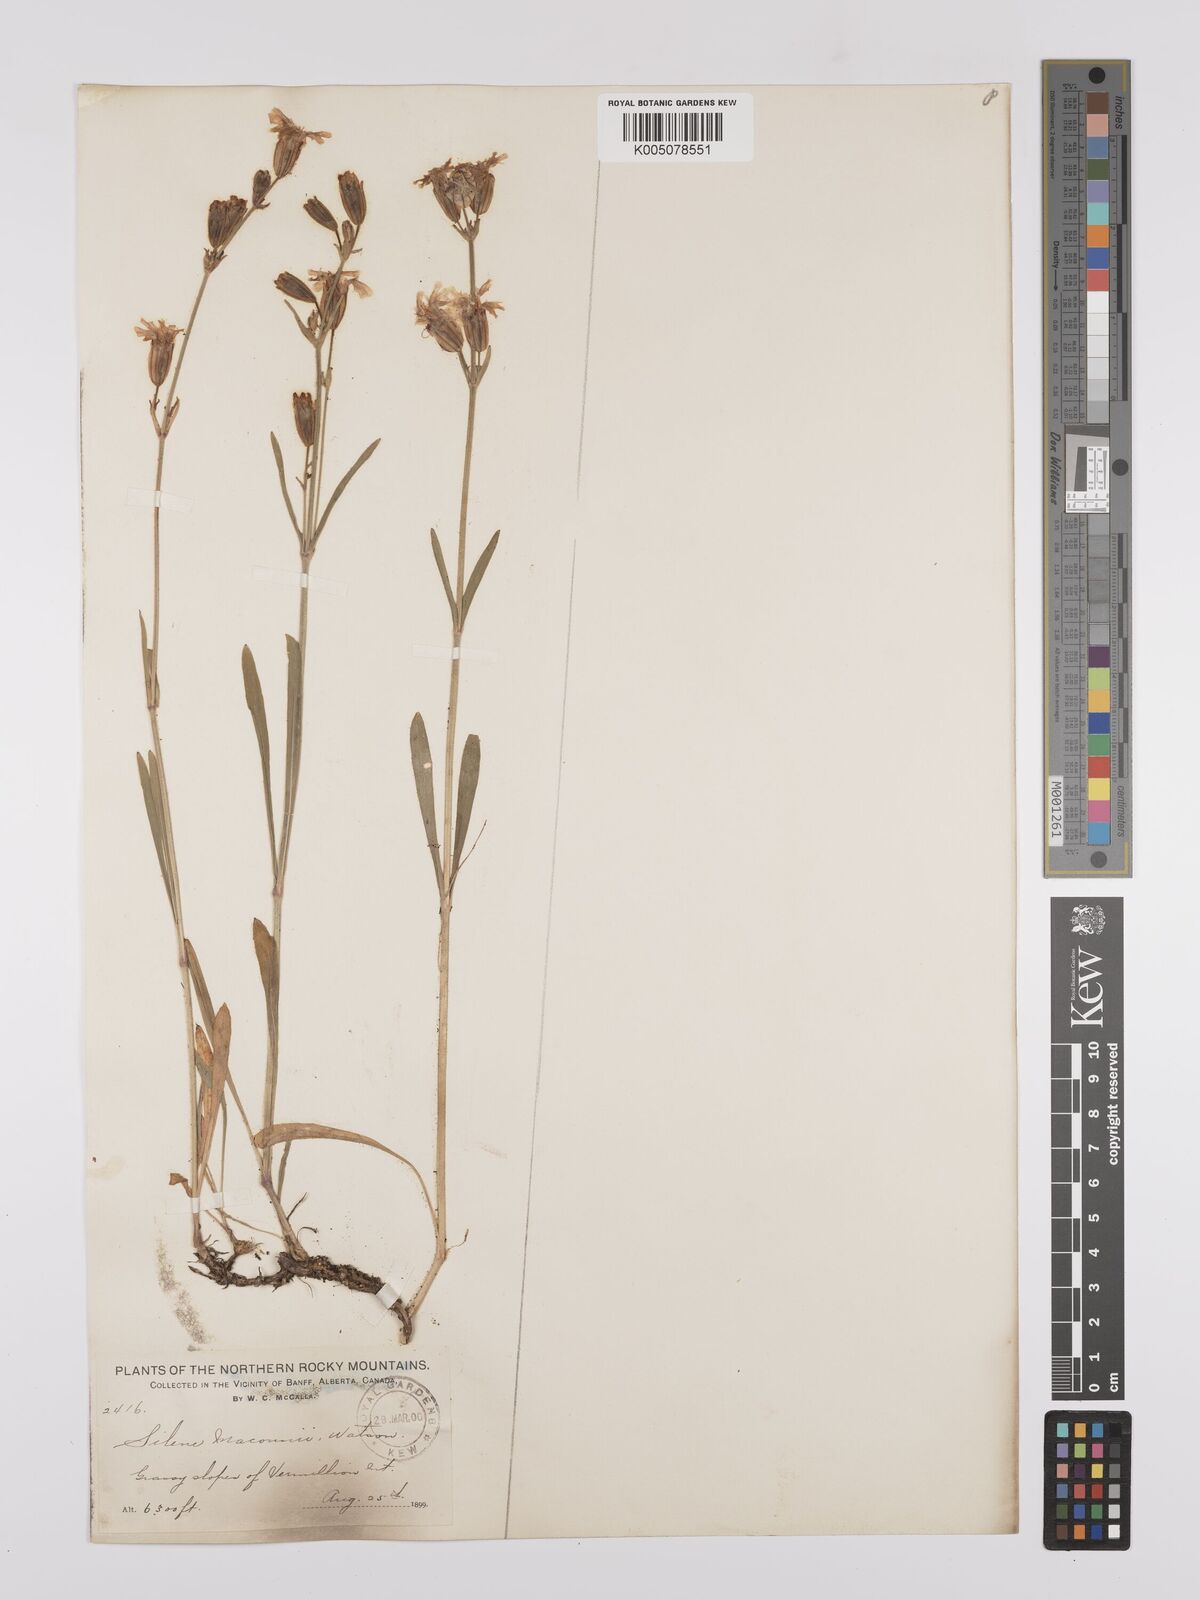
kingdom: Plantae
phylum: Tracheophyta
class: Magnoliopsida
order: Caryophyllales
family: Caryophyllaceae
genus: Silene
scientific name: Silene parryi
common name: Parry's campion
